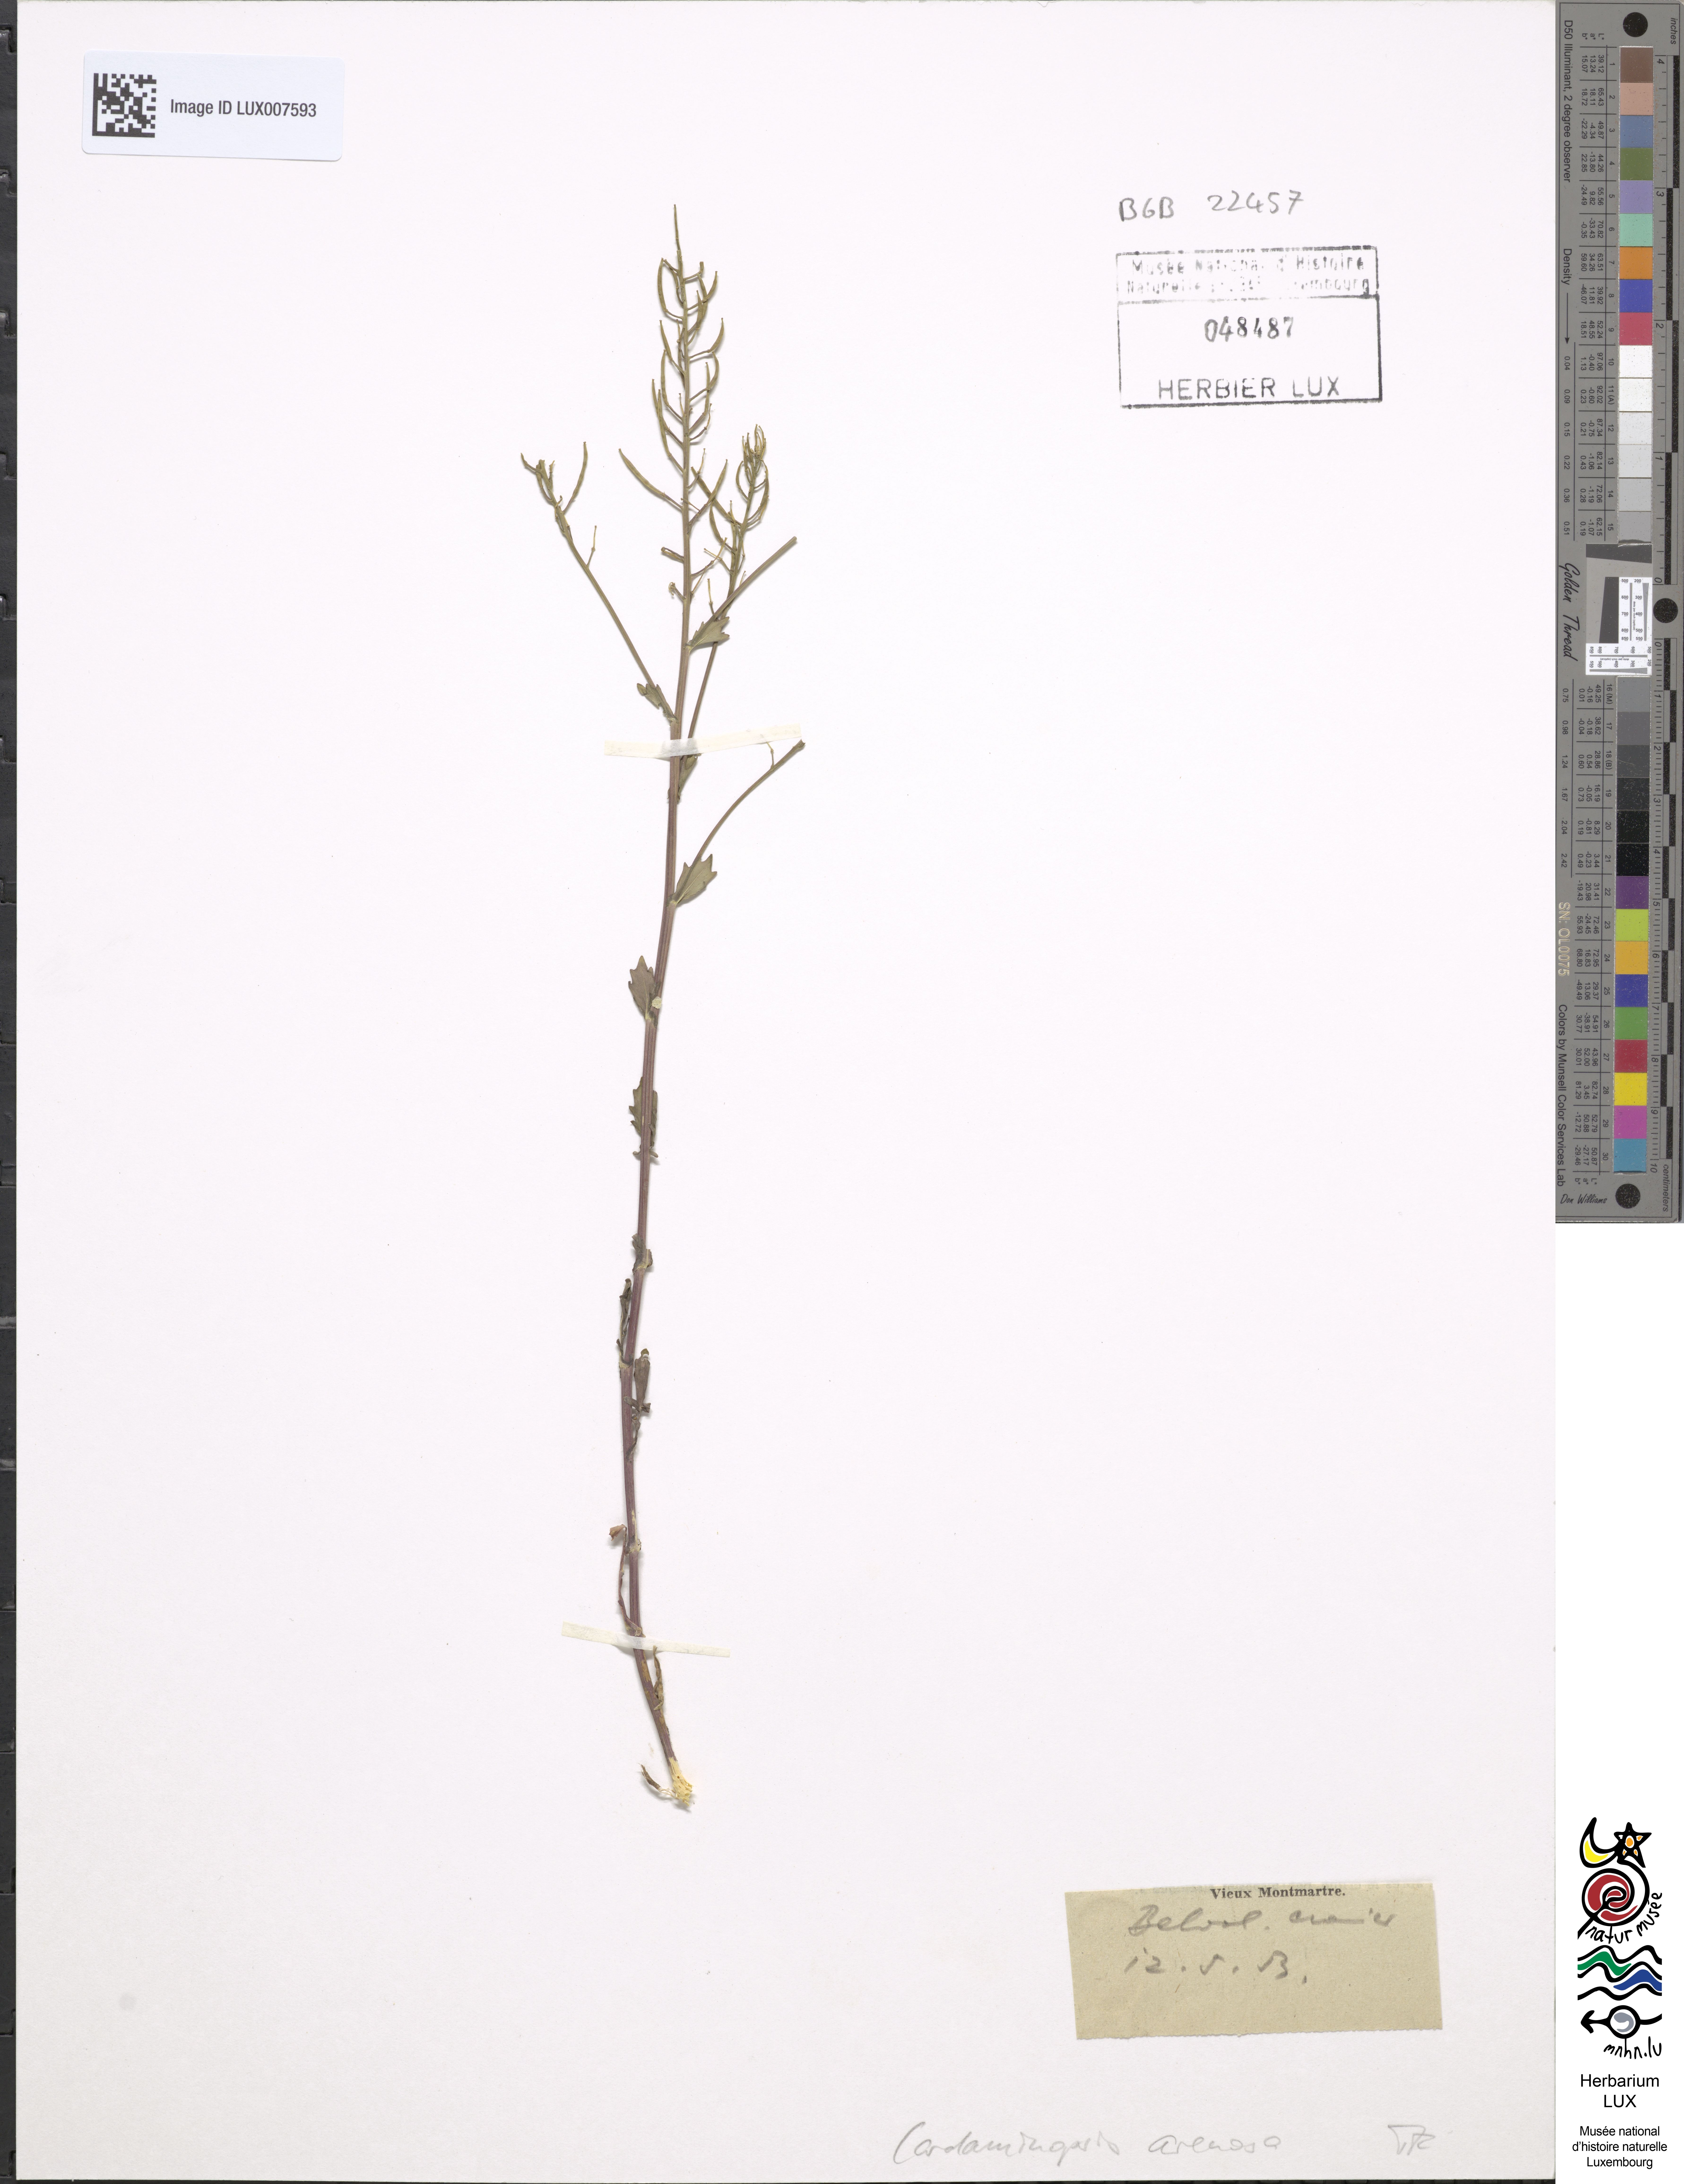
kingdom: Plantae
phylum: Tracheophyta
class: Magnoliopsida
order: Brassicales
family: Brassicaceae
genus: Arabidopsis
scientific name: Arabidopsis arenosa
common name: Sand rock-cress
